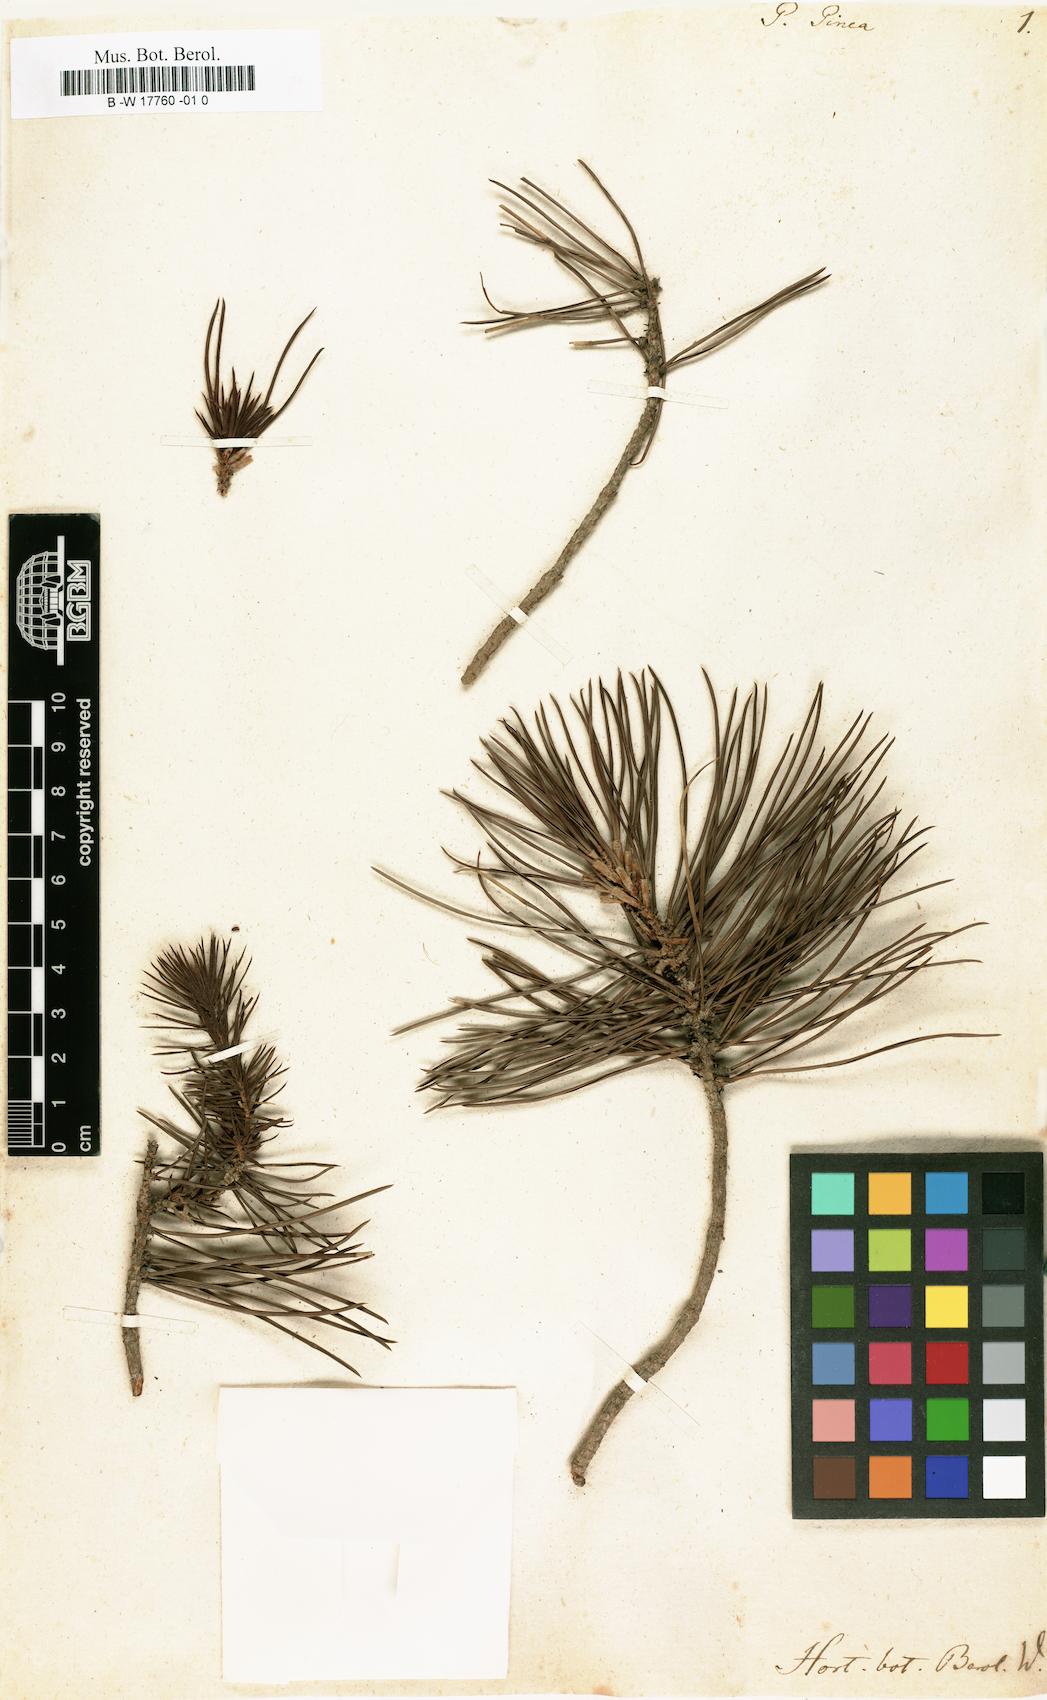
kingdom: Plantae
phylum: Tracheophyta
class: Pinopsida
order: Pinales
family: Pinaceae
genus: Pinus
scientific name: Pinus pinea
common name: Italian stone pine
